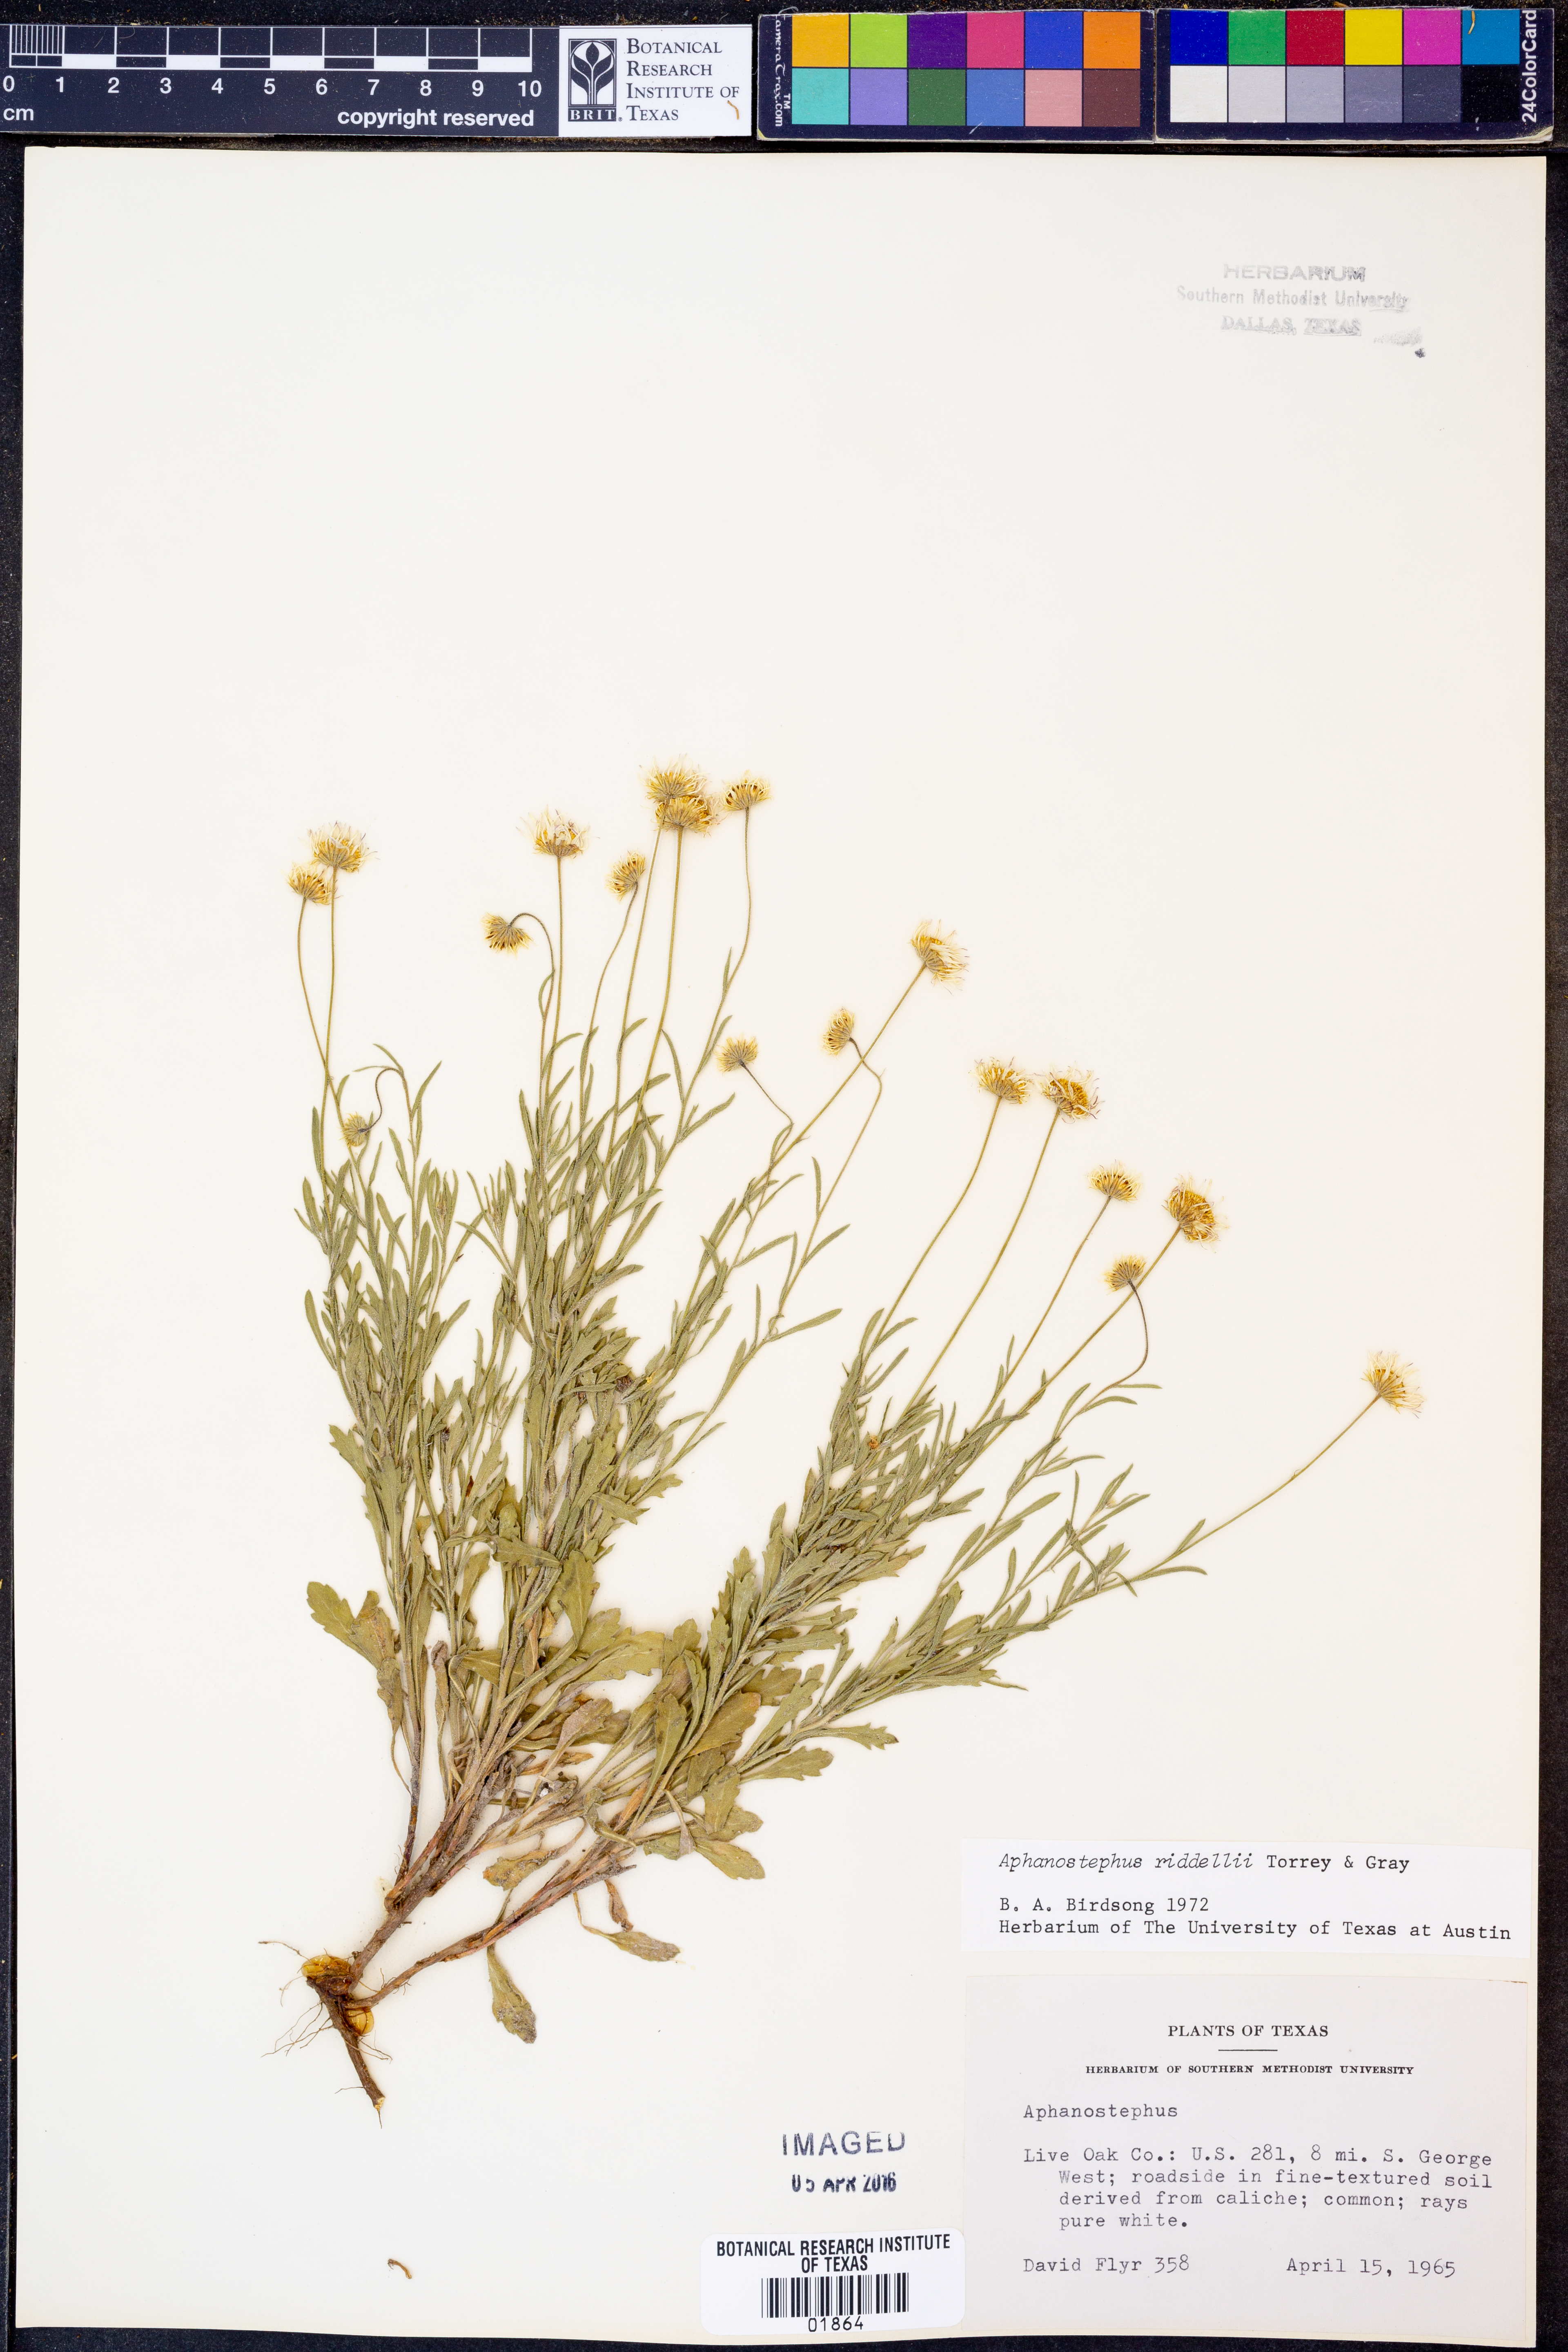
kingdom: Plantae
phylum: Tracheophyta
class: Magnoliopsida
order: Asterales
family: Asteraceae
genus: Aphanostephus
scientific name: Aphanostephus riddellii
